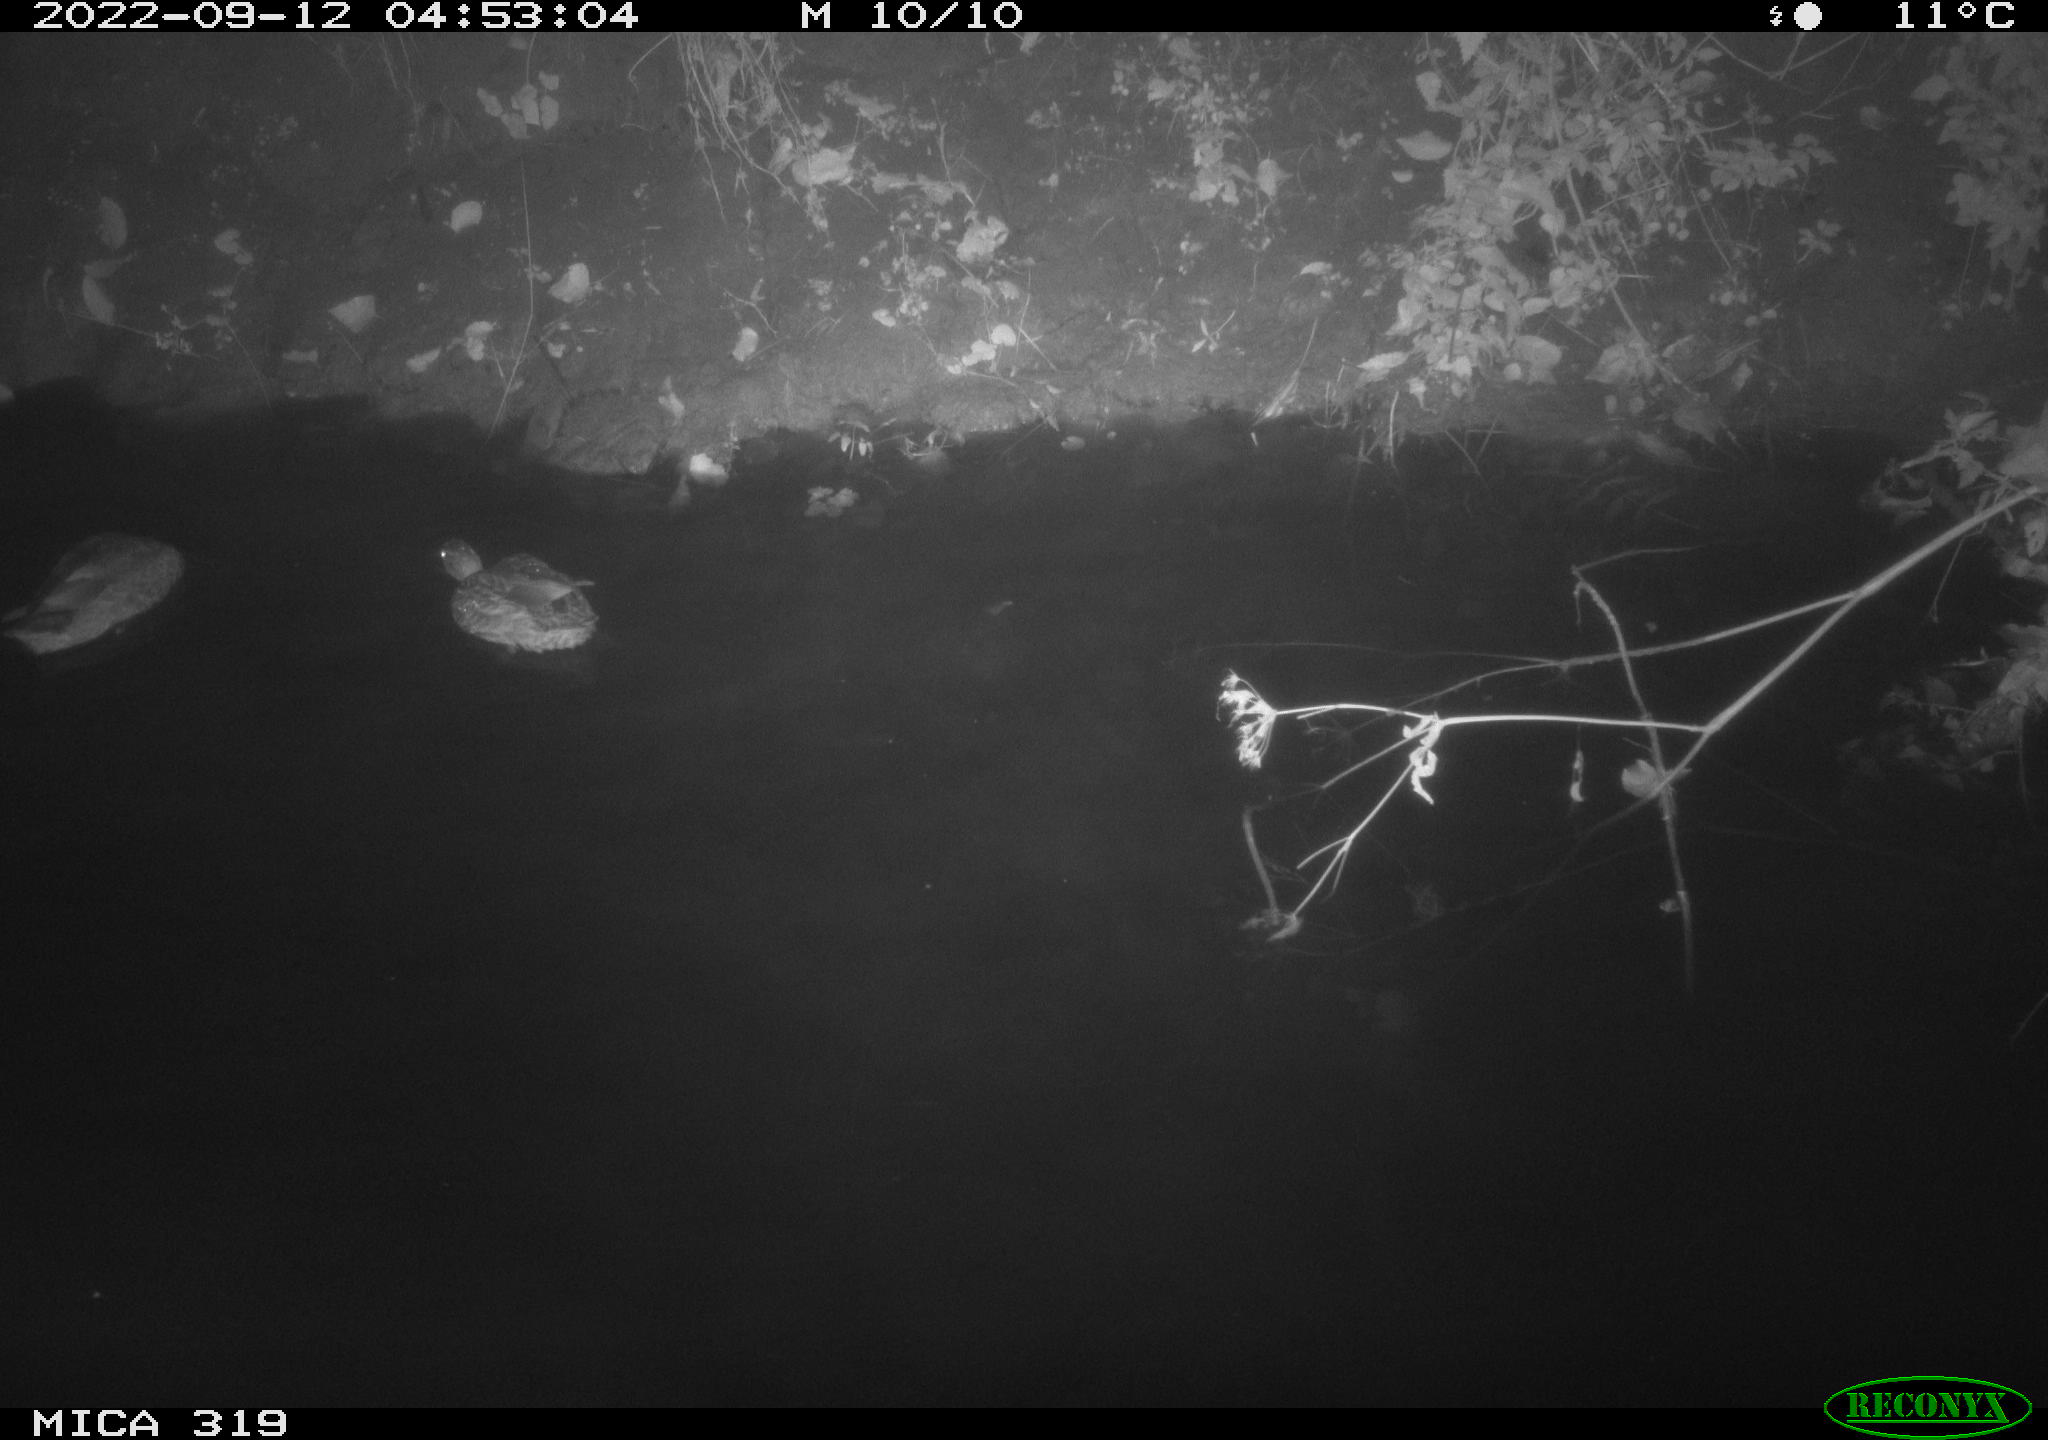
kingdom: Animalia
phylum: Chordata
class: Aves
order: Anseriformes
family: Anatidae
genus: Anas
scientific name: Anas
